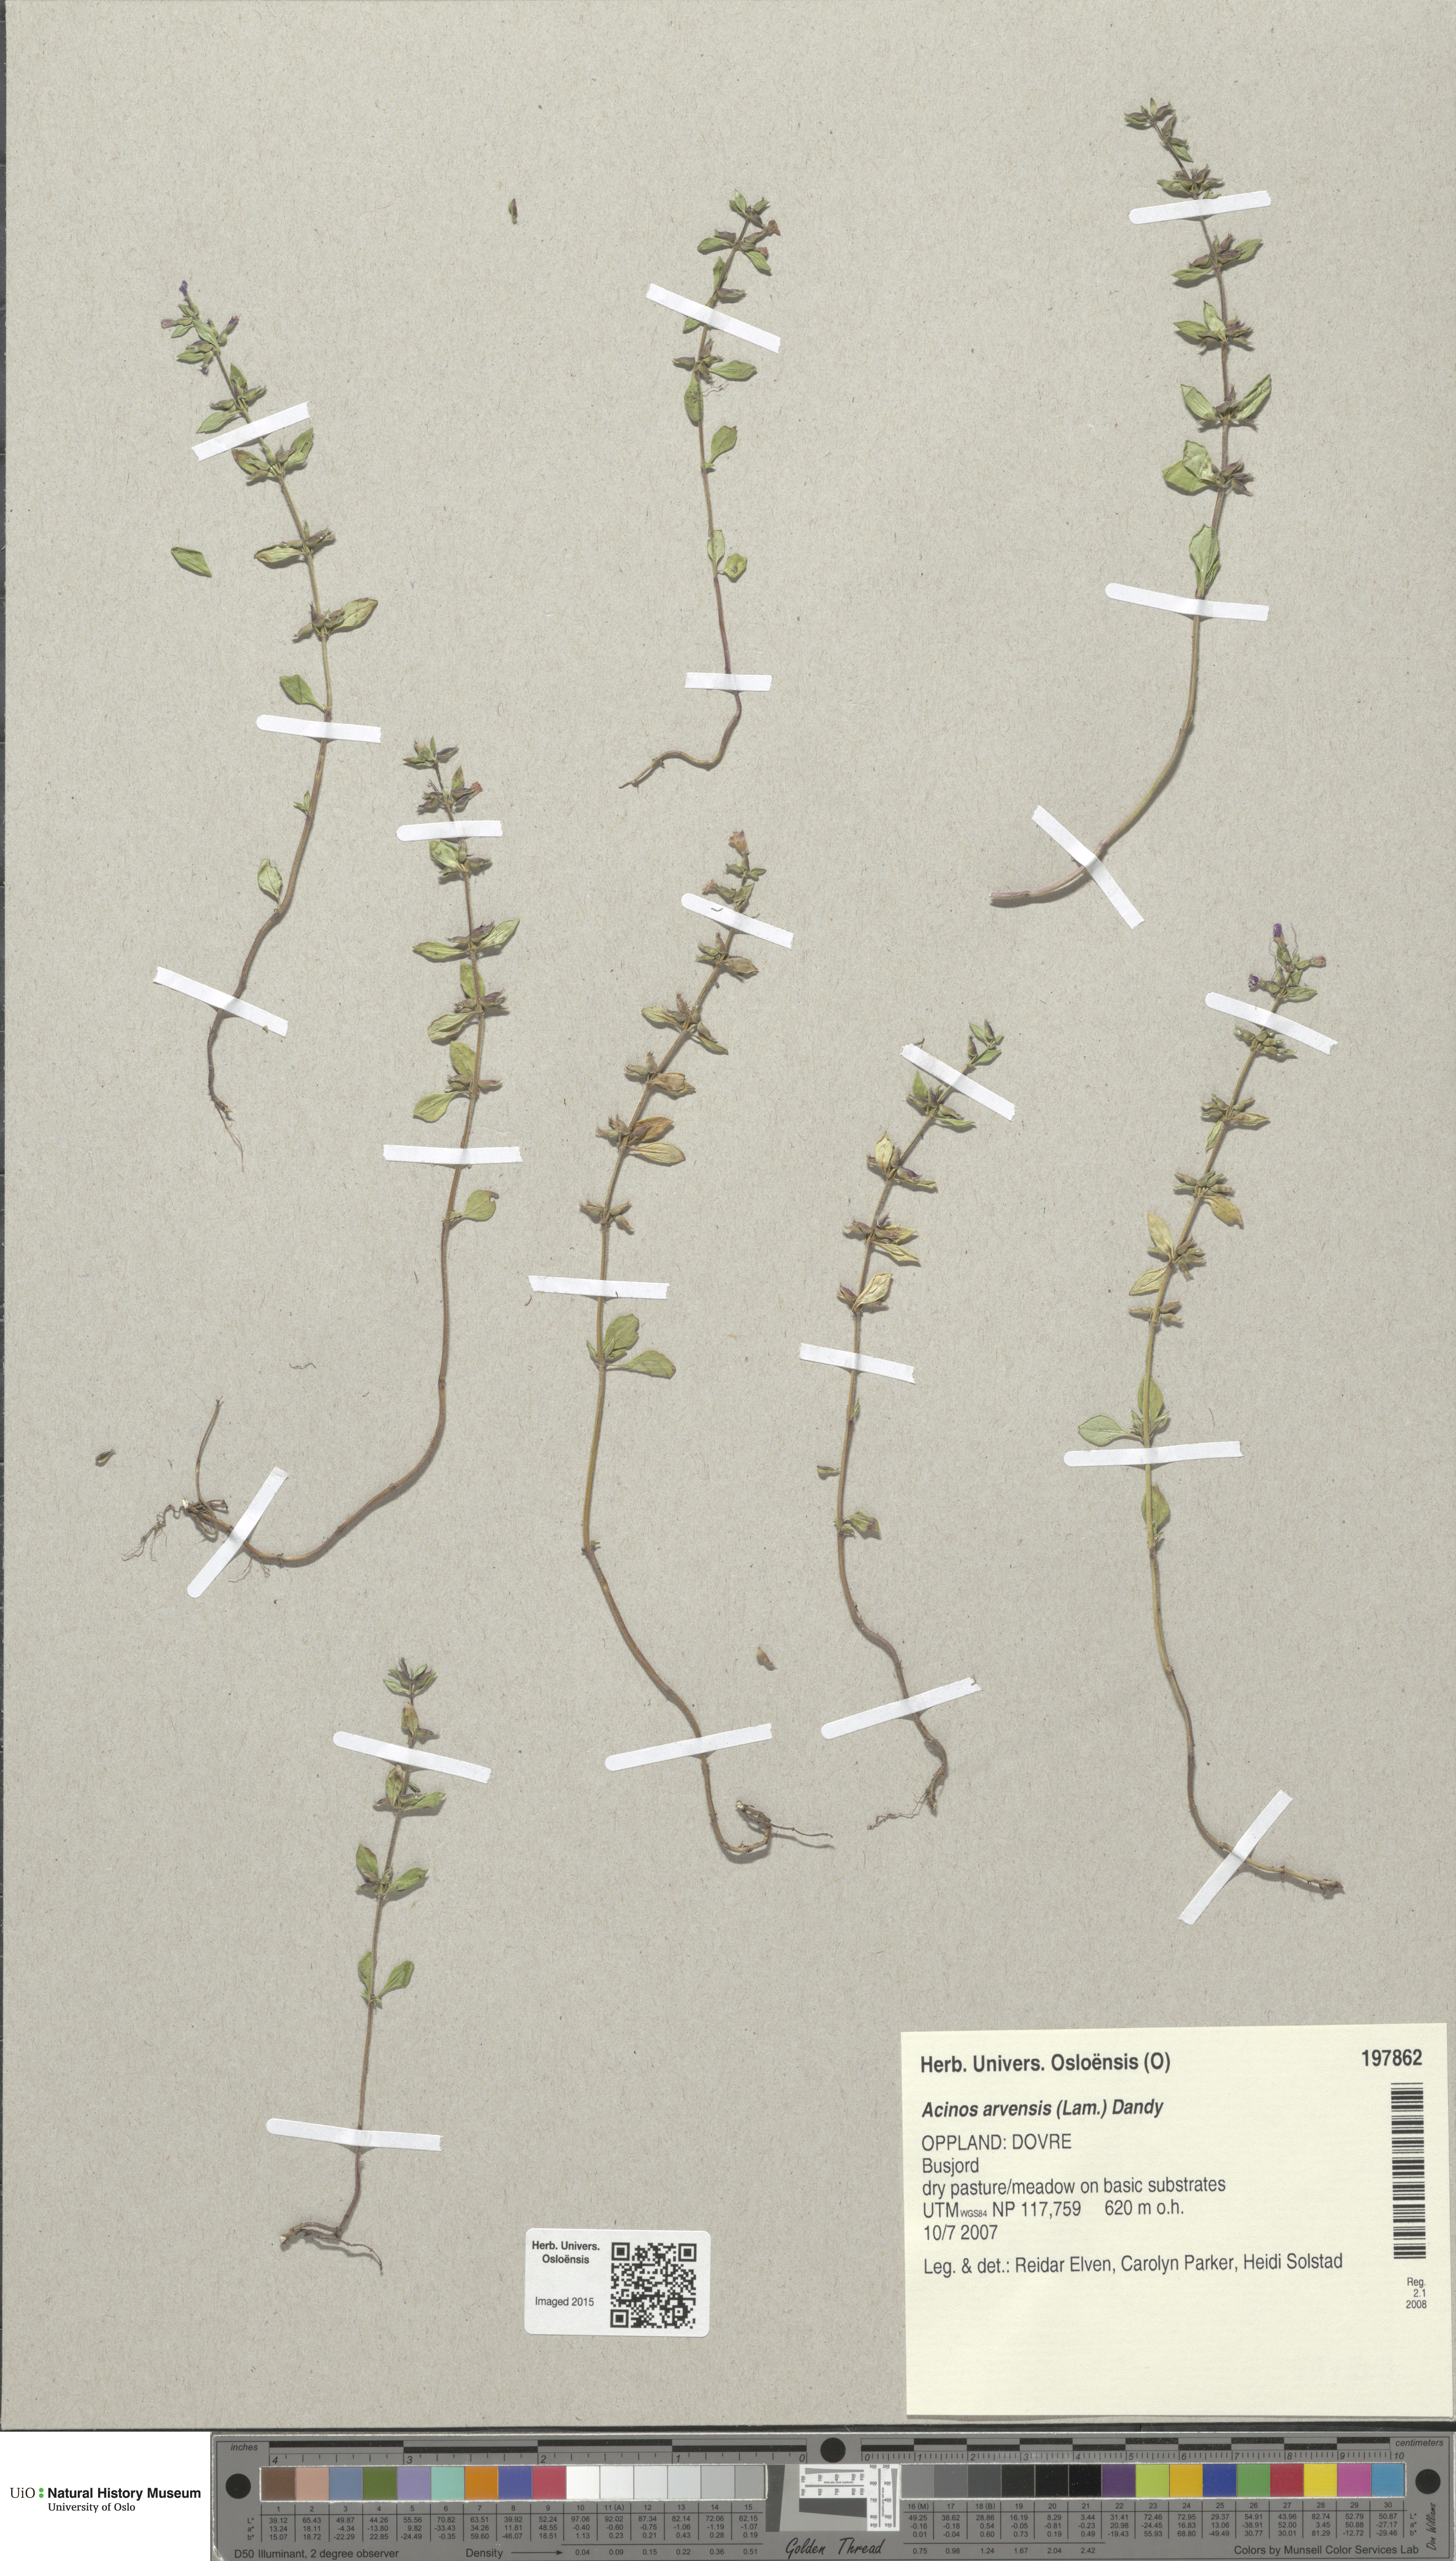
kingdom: Plantae
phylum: Tracheophyta
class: Magnoliopsida
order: Lamiales
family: Lamiaceae
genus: Clinopodium
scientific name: Clinopodium acinos
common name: Basil thyme
